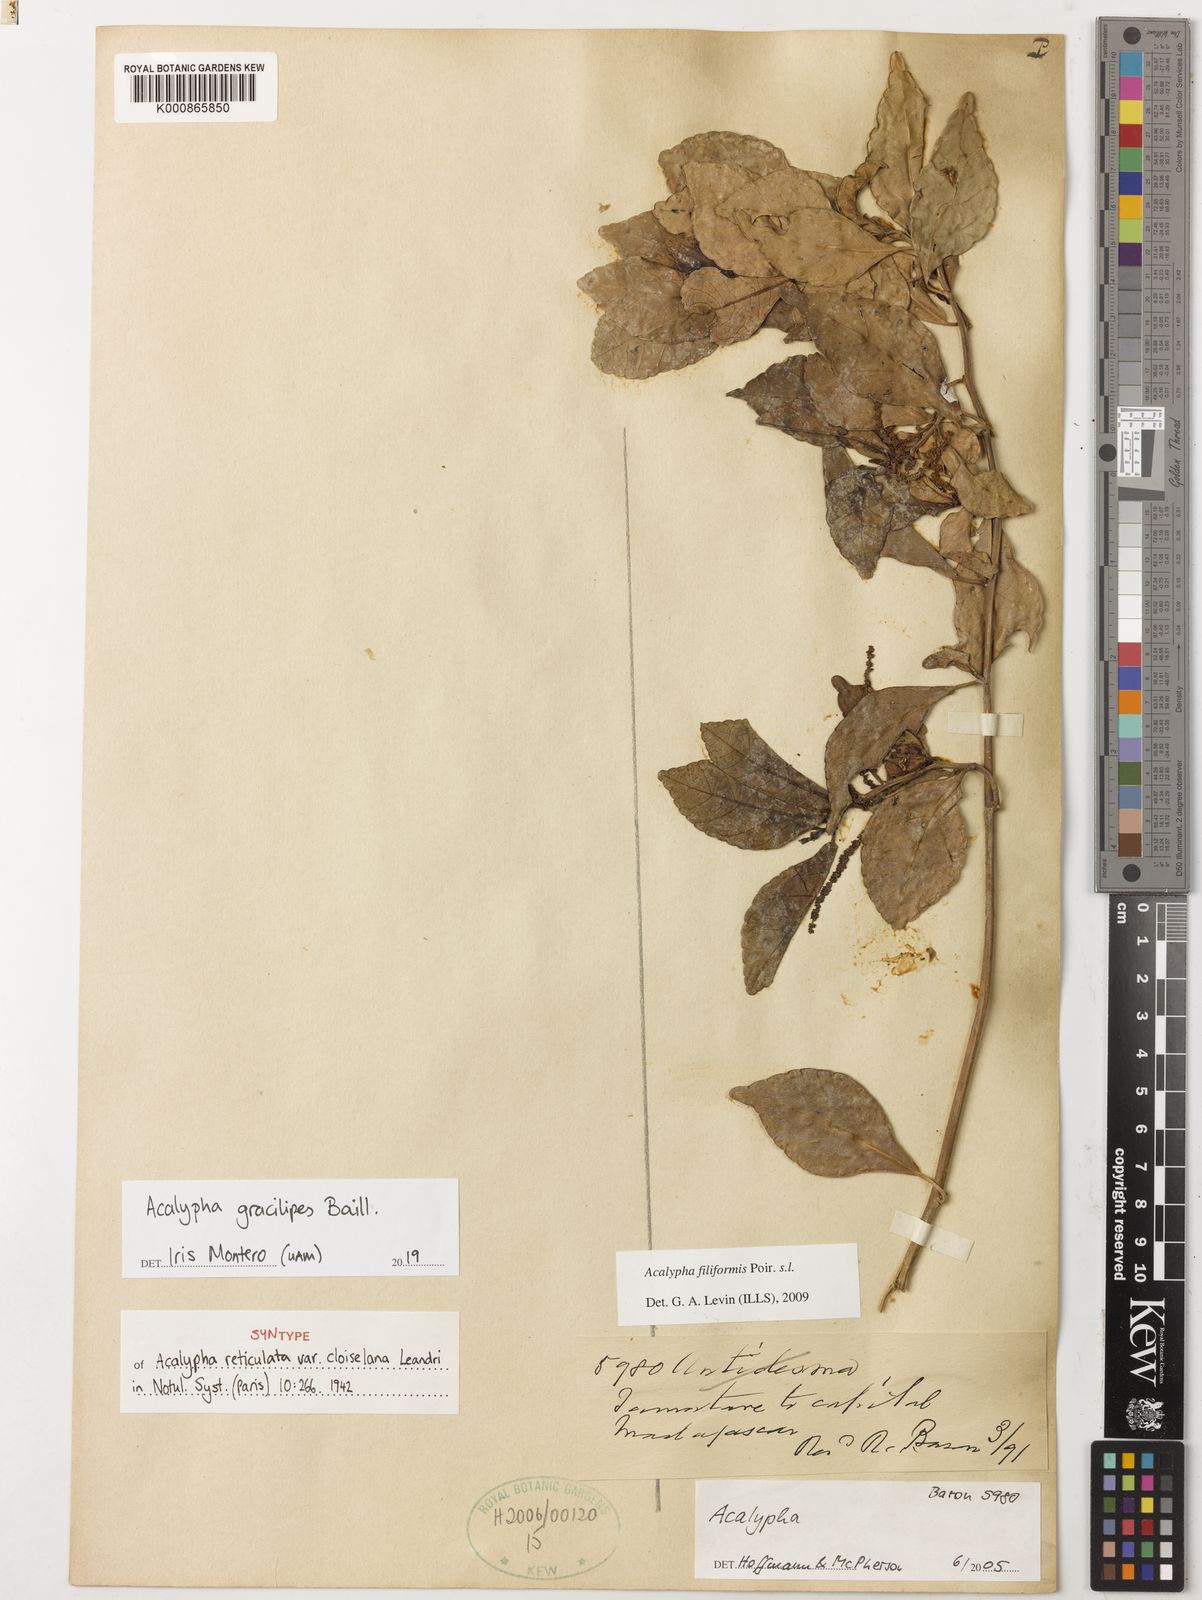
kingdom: Plantae
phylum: Tracheophyta
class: Magnoliopsida
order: Malpighiales
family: Euphorbiaceae
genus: Acalypha
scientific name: Acalypha gracilipes
